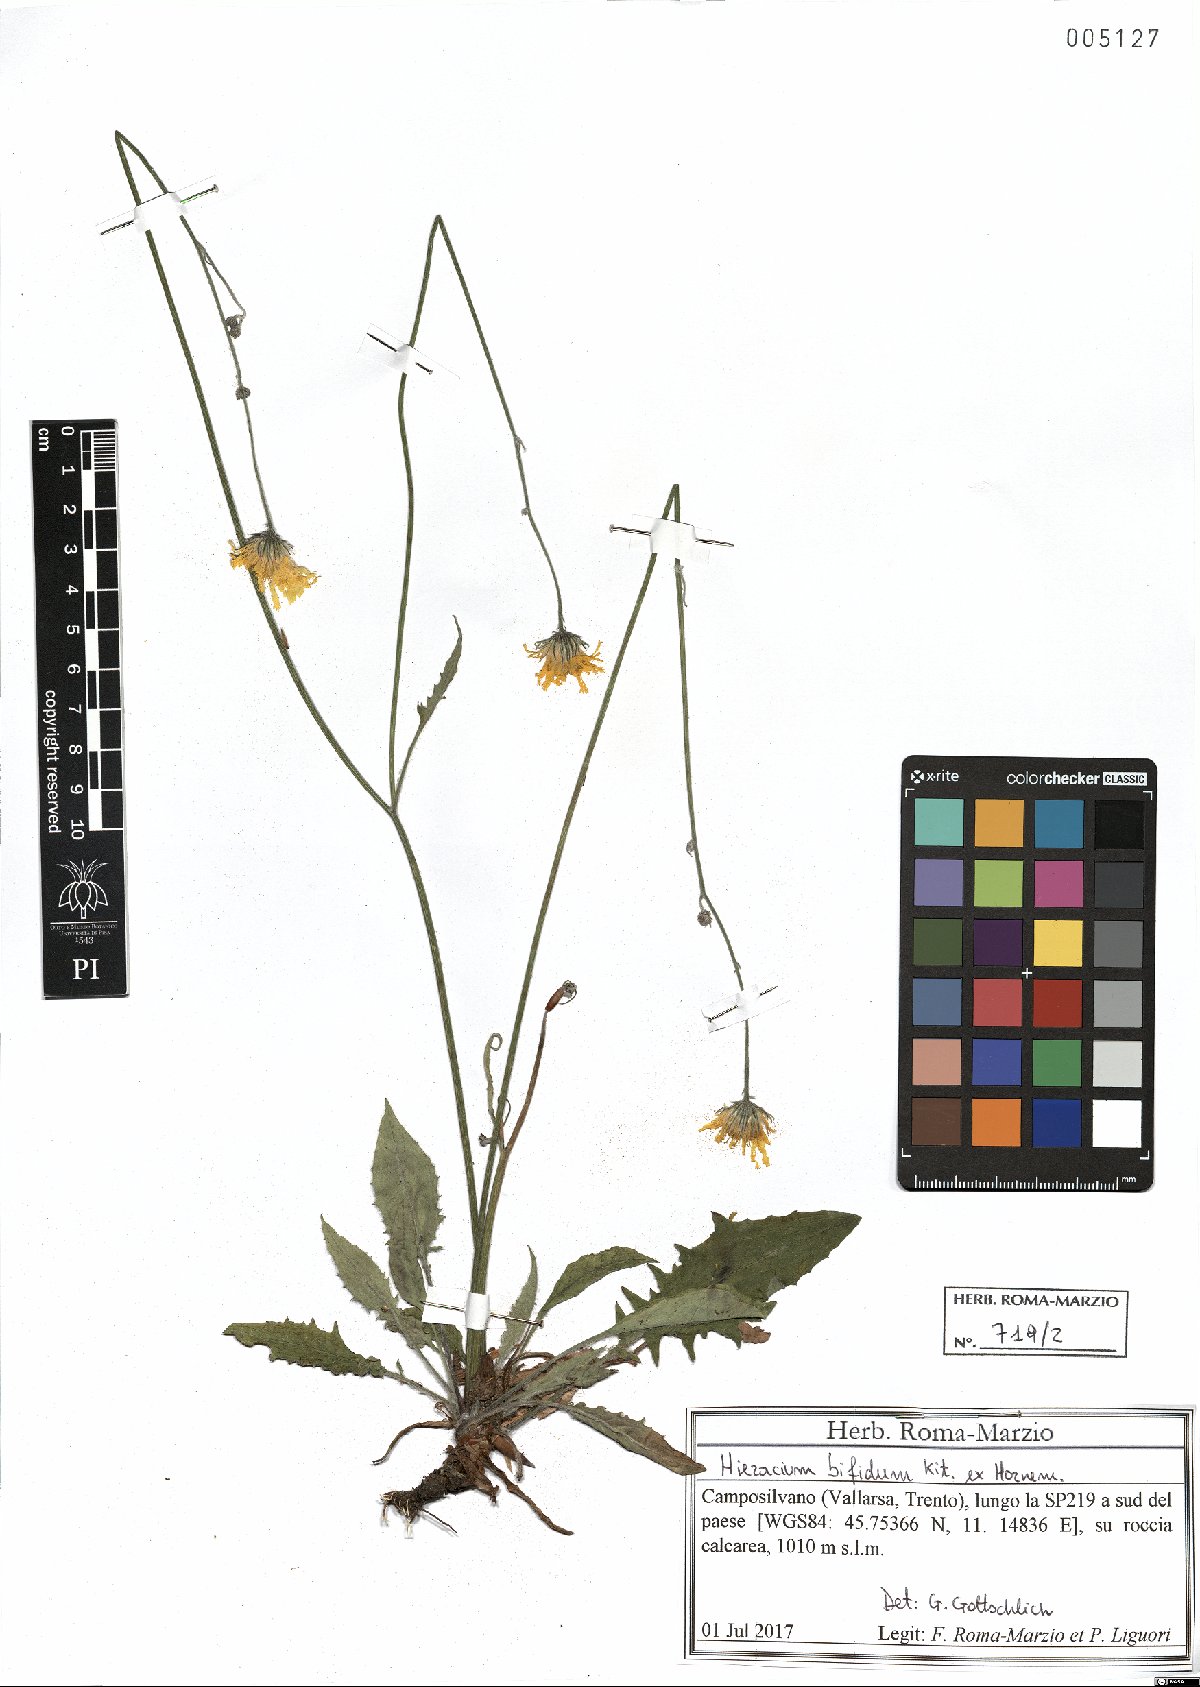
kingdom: Plantae
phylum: Tracheophyta
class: Magnoliopsida
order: Asterales
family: Asteraceae
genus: Hieracium
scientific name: Hieracium bifidum
